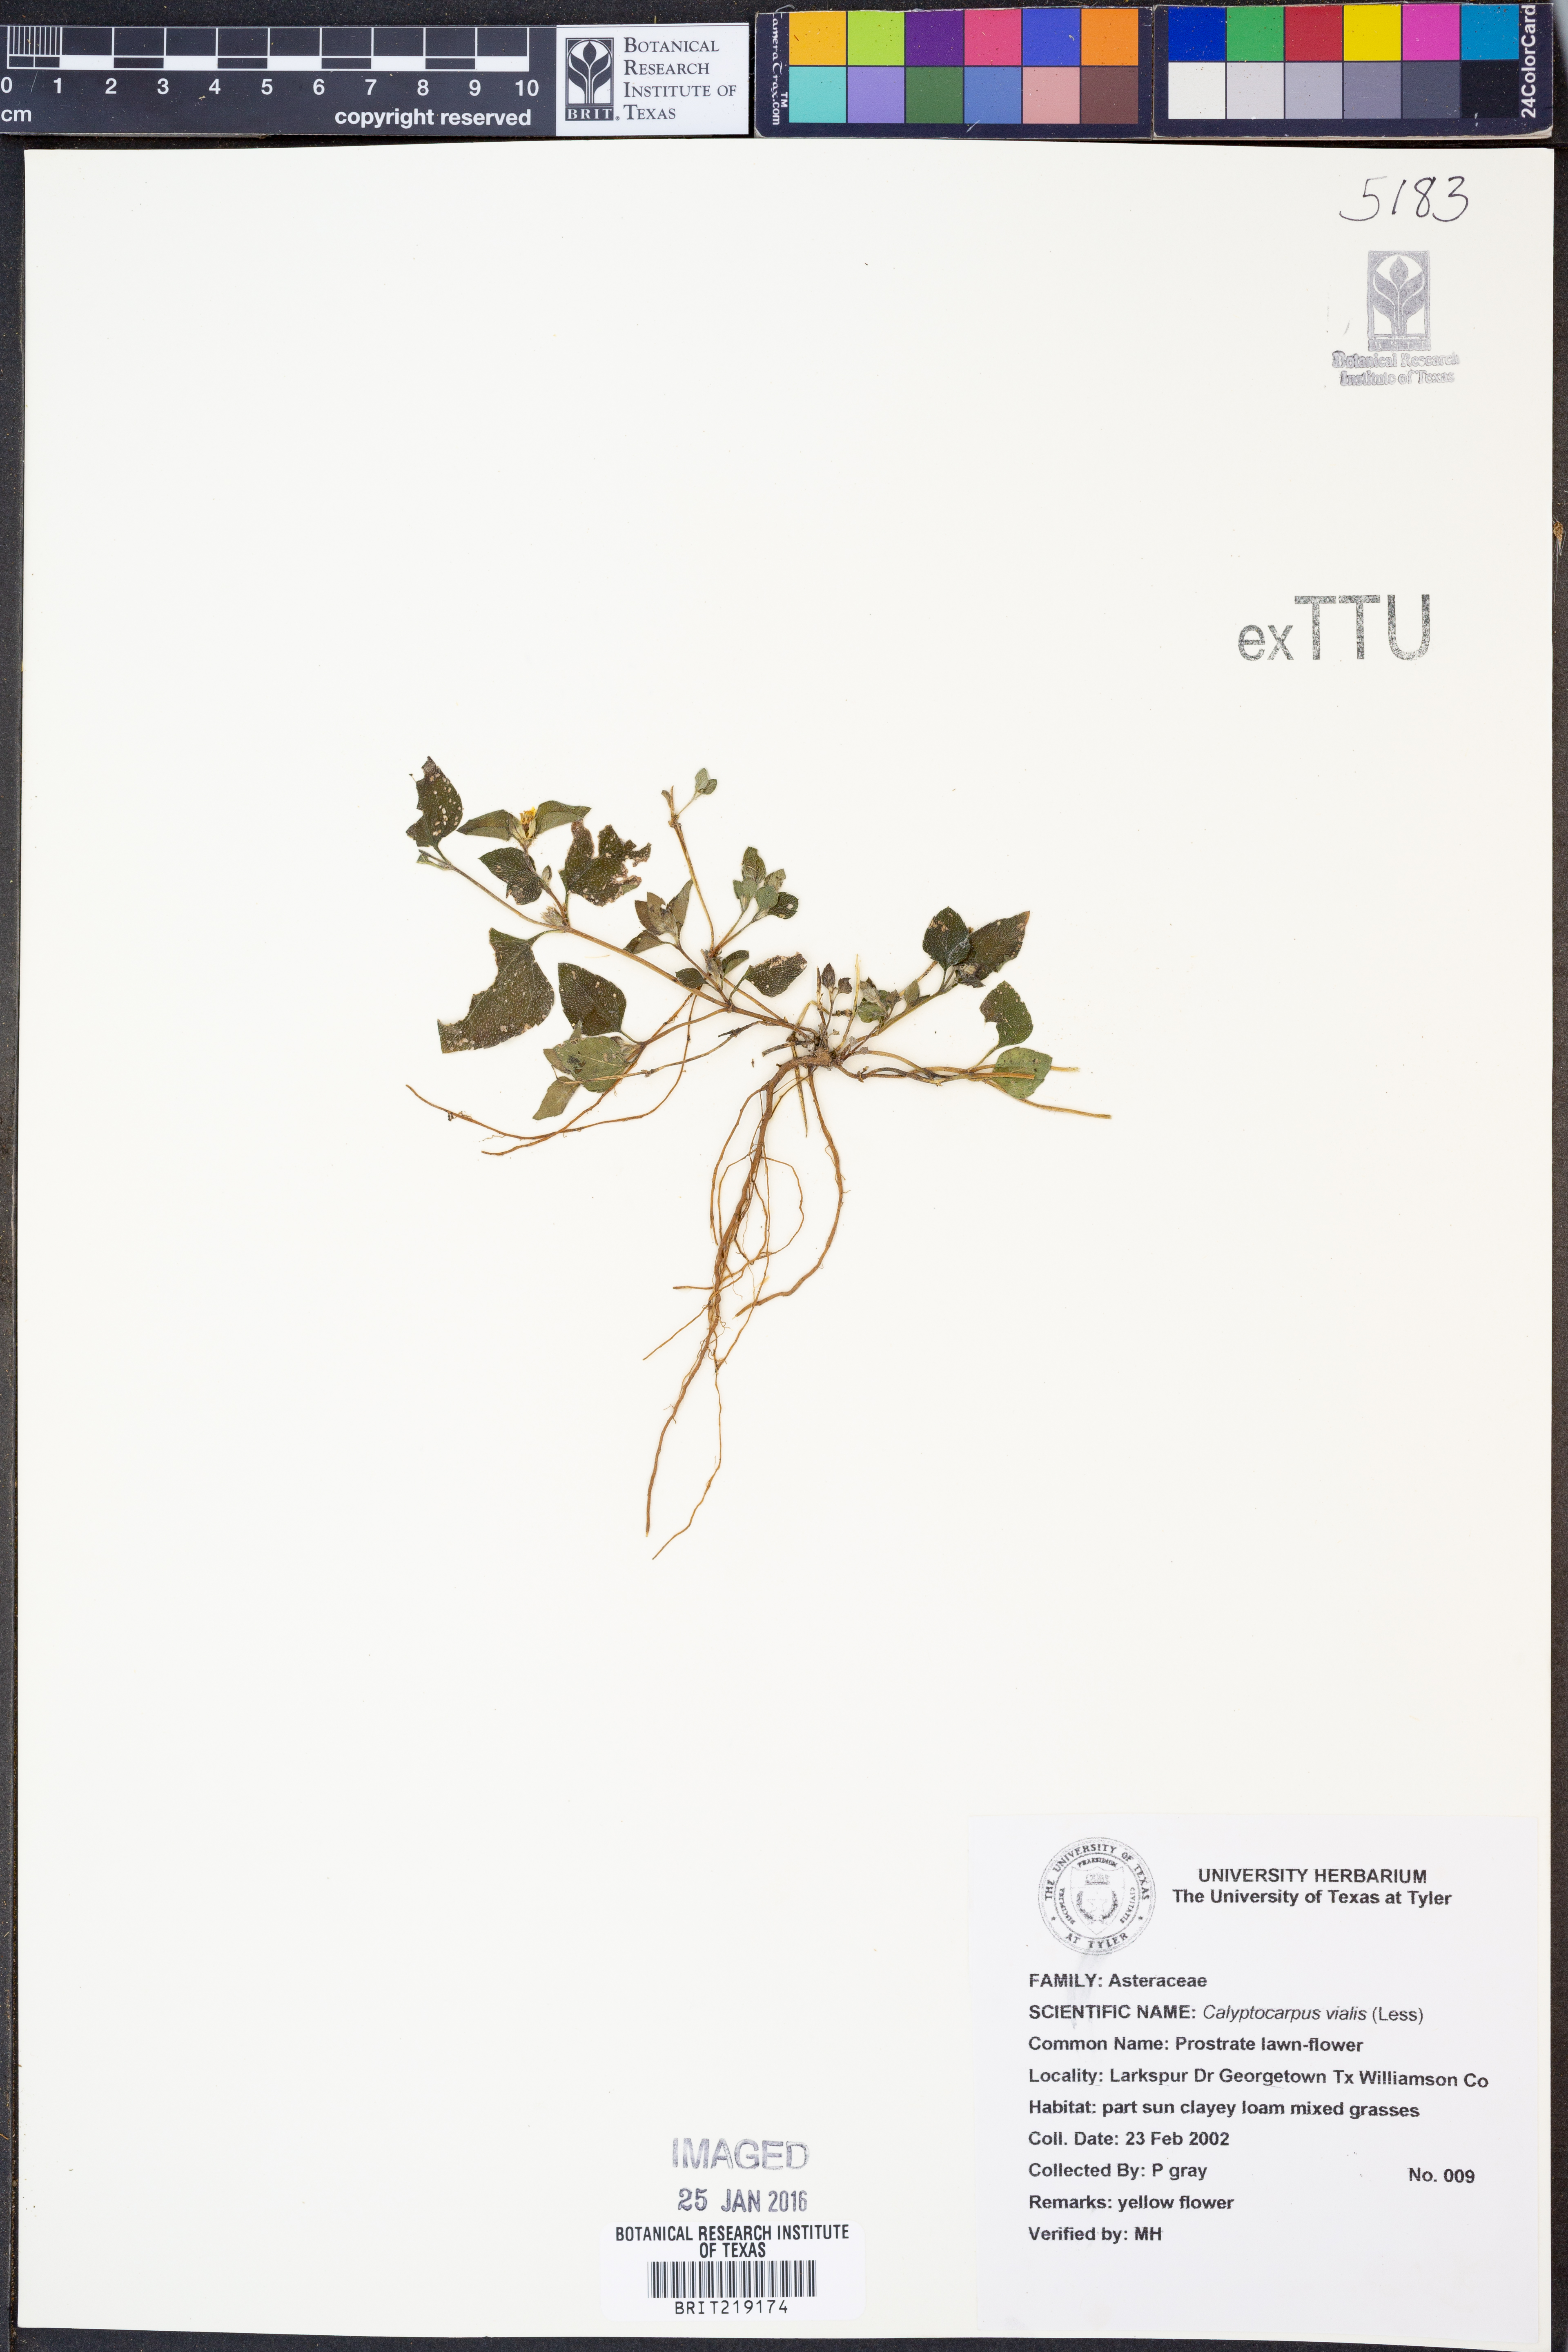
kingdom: Plantae
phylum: Tracheophyta
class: Magnoliopsida
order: Asterales
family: Asteraceae
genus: Calyptocarpus
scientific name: Calyptocarpus vialis
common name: Straggler daisy
